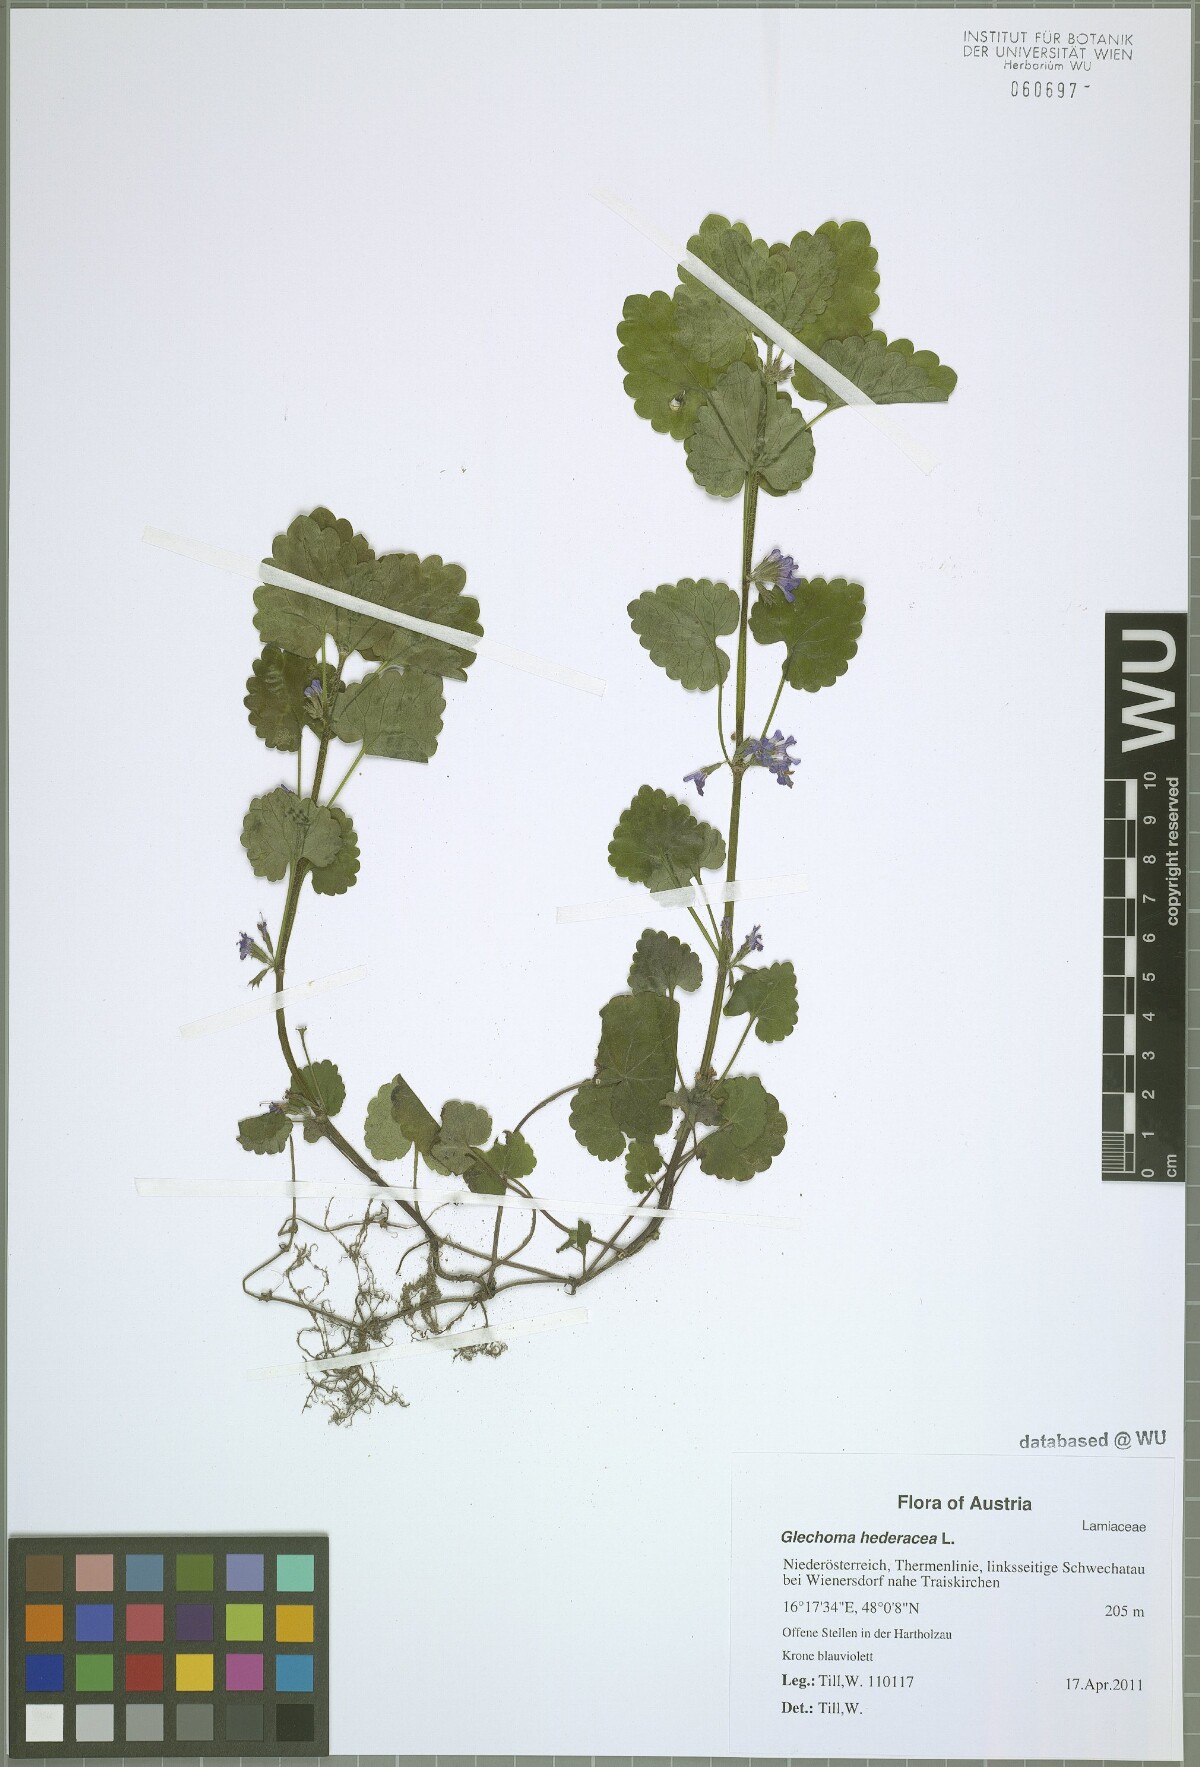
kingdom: Plantae
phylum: Tracheophyta
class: Magnoliopsida
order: Lamiales
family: Lamiaceae
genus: Glechoma
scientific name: Glechoma hederacea
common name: Ground ivy
